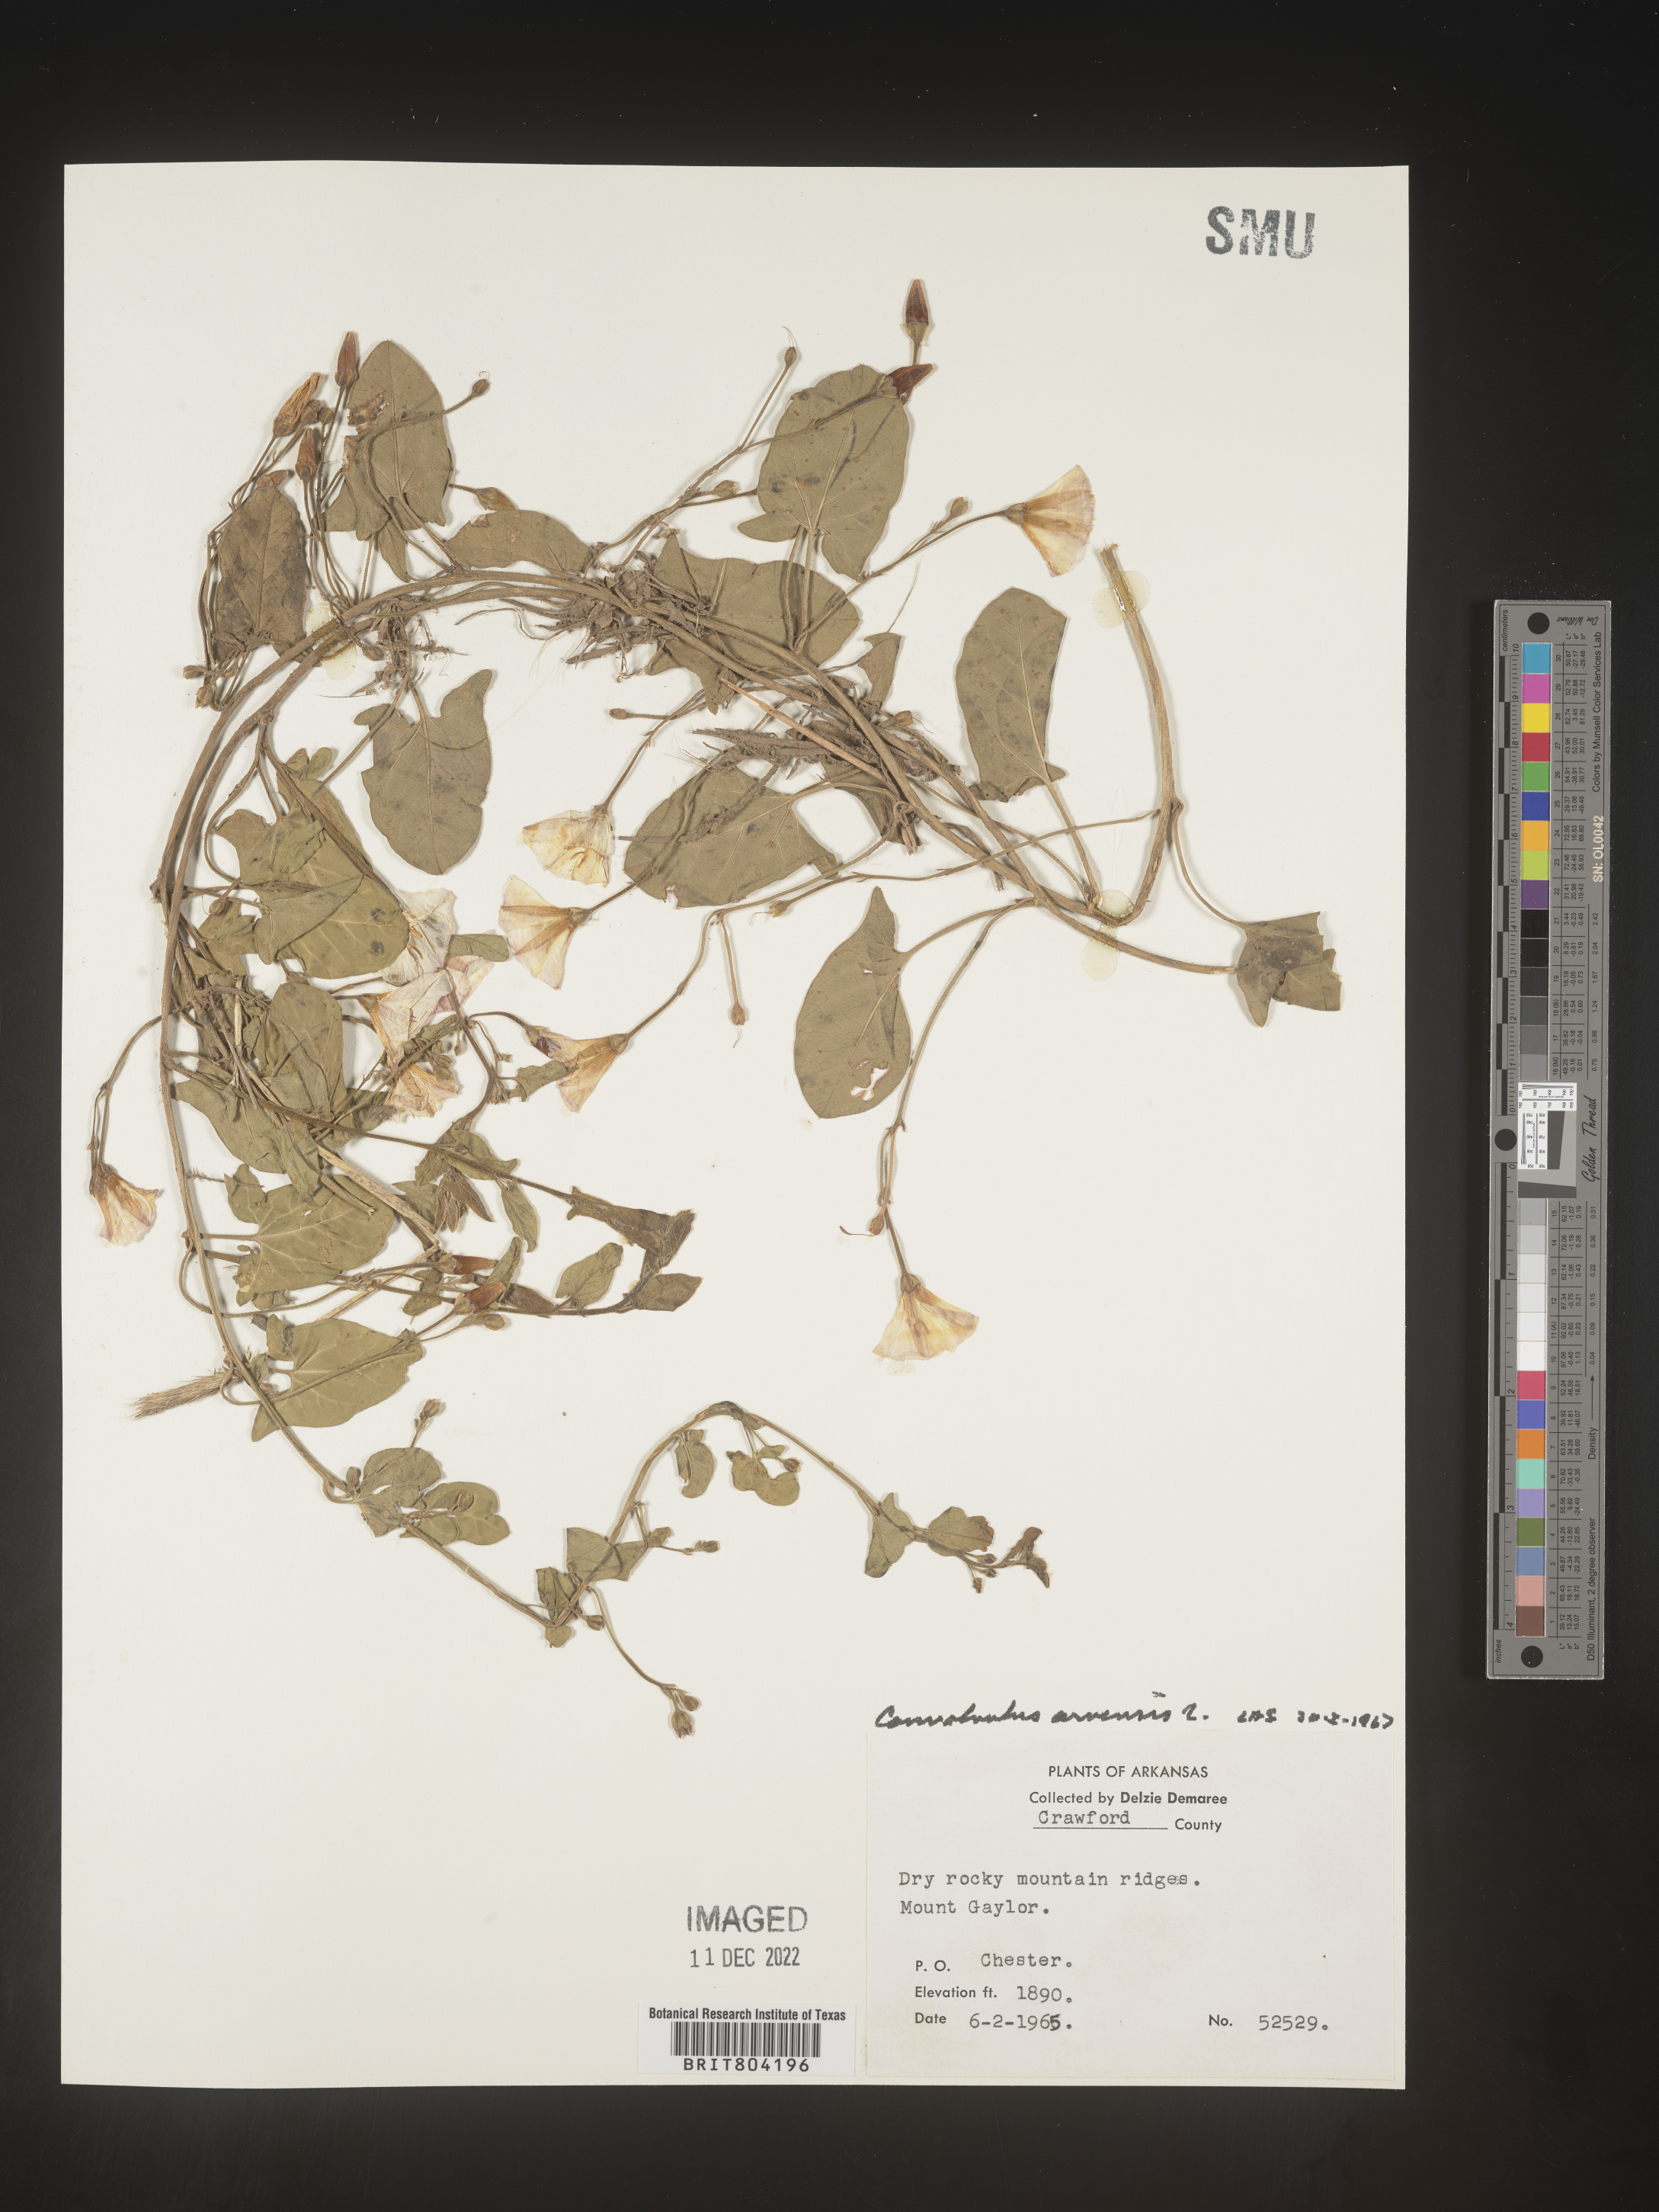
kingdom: Plantae
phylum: Tracheophyta
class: Magnoliopsida
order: Solanales
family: Convolvulaceae
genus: Convolvulus
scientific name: Convolvulus arvensis
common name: Field bindweed
